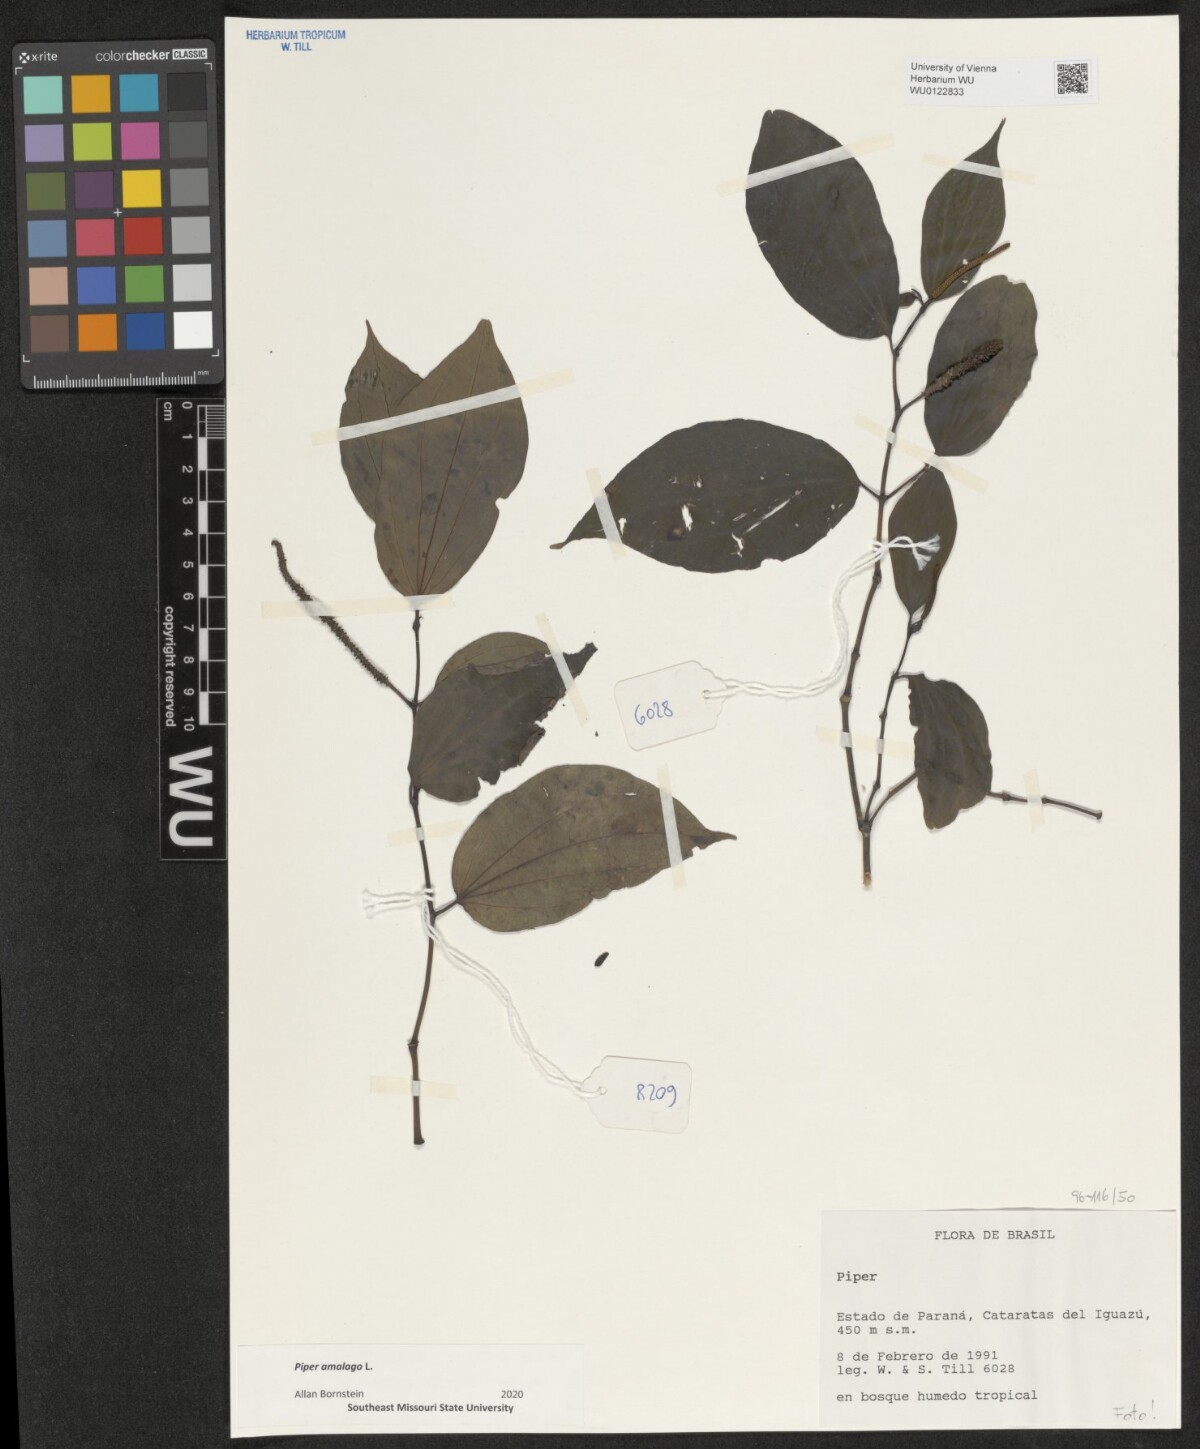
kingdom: Plantae
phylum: Tracheophyta
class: Magnoliopsida
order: Piperales
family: Piperaceae
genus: Piper
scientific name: Piper amalago
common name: Pepper-elder
